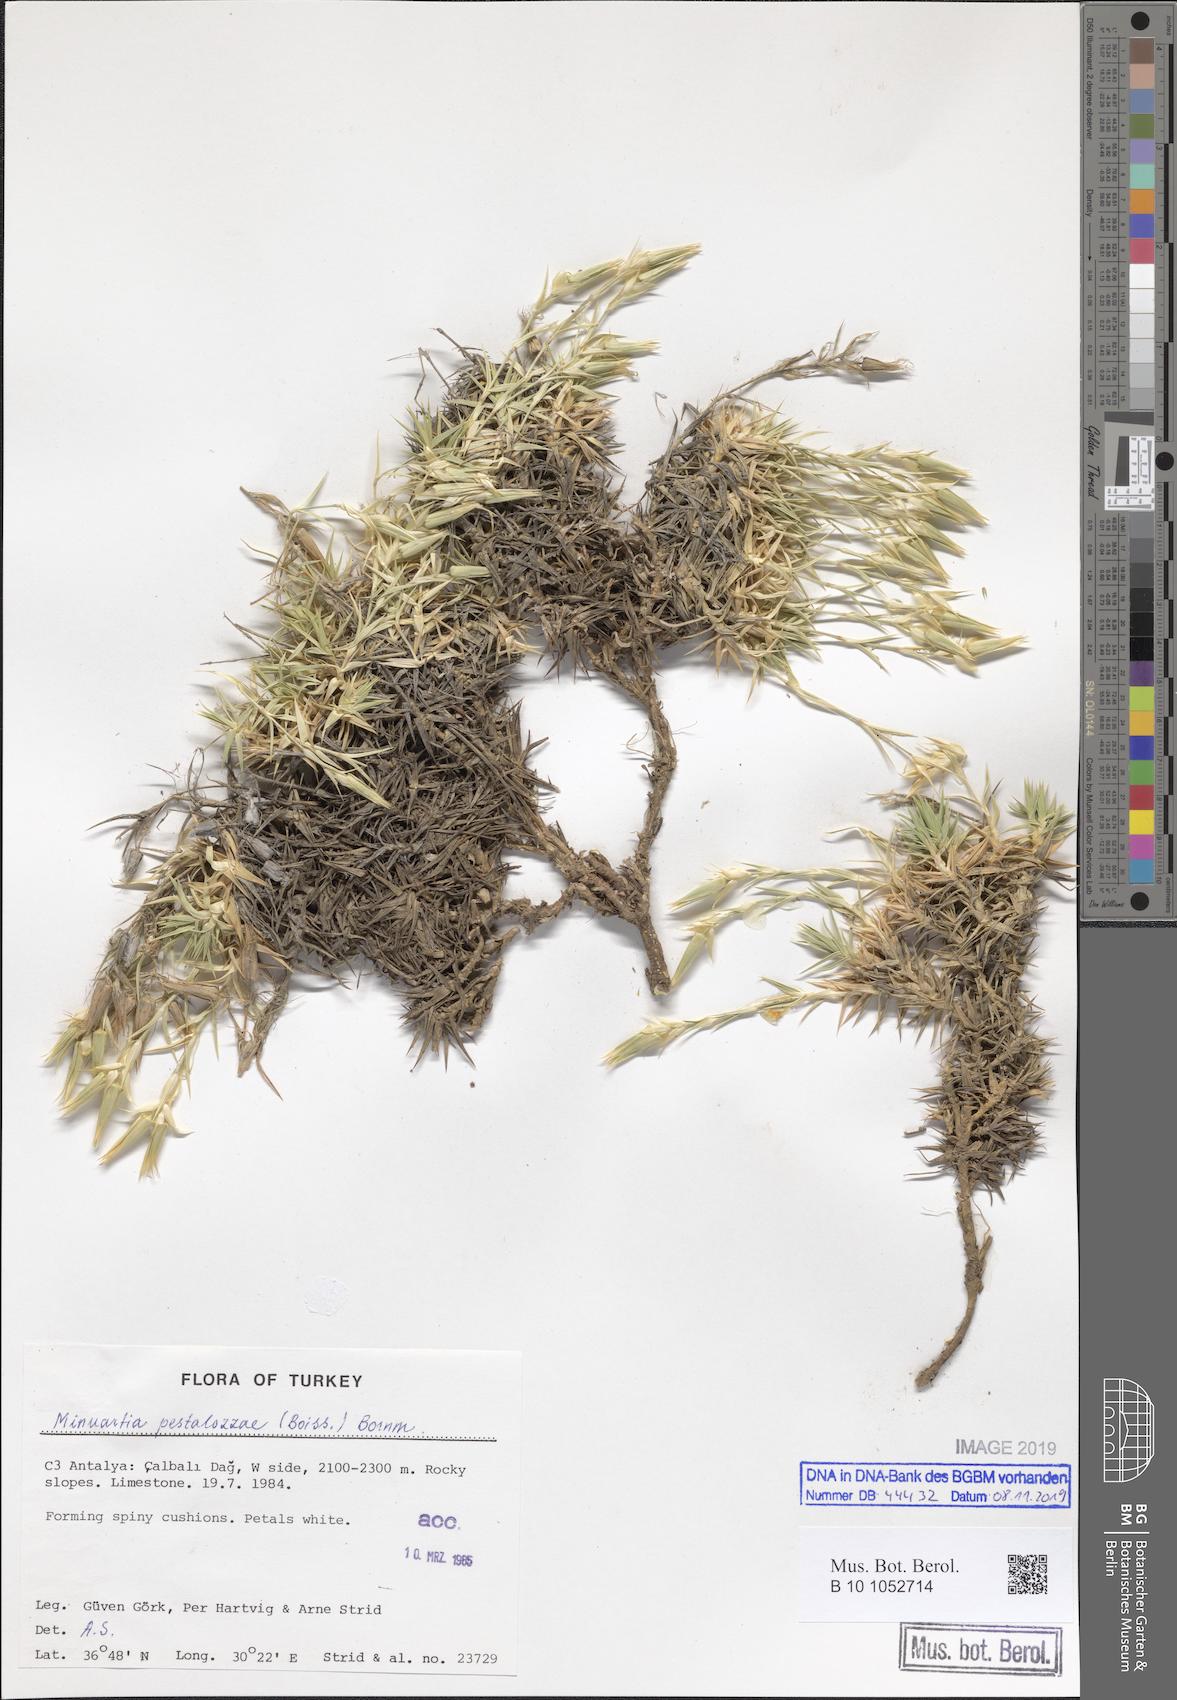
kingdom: Plantae
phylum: Tracheophyta
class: Magnoliopsida
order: Caryophyllales
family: Caryophyllaceae
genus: Minuartiella
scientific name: Minuartiella pestalozzae
